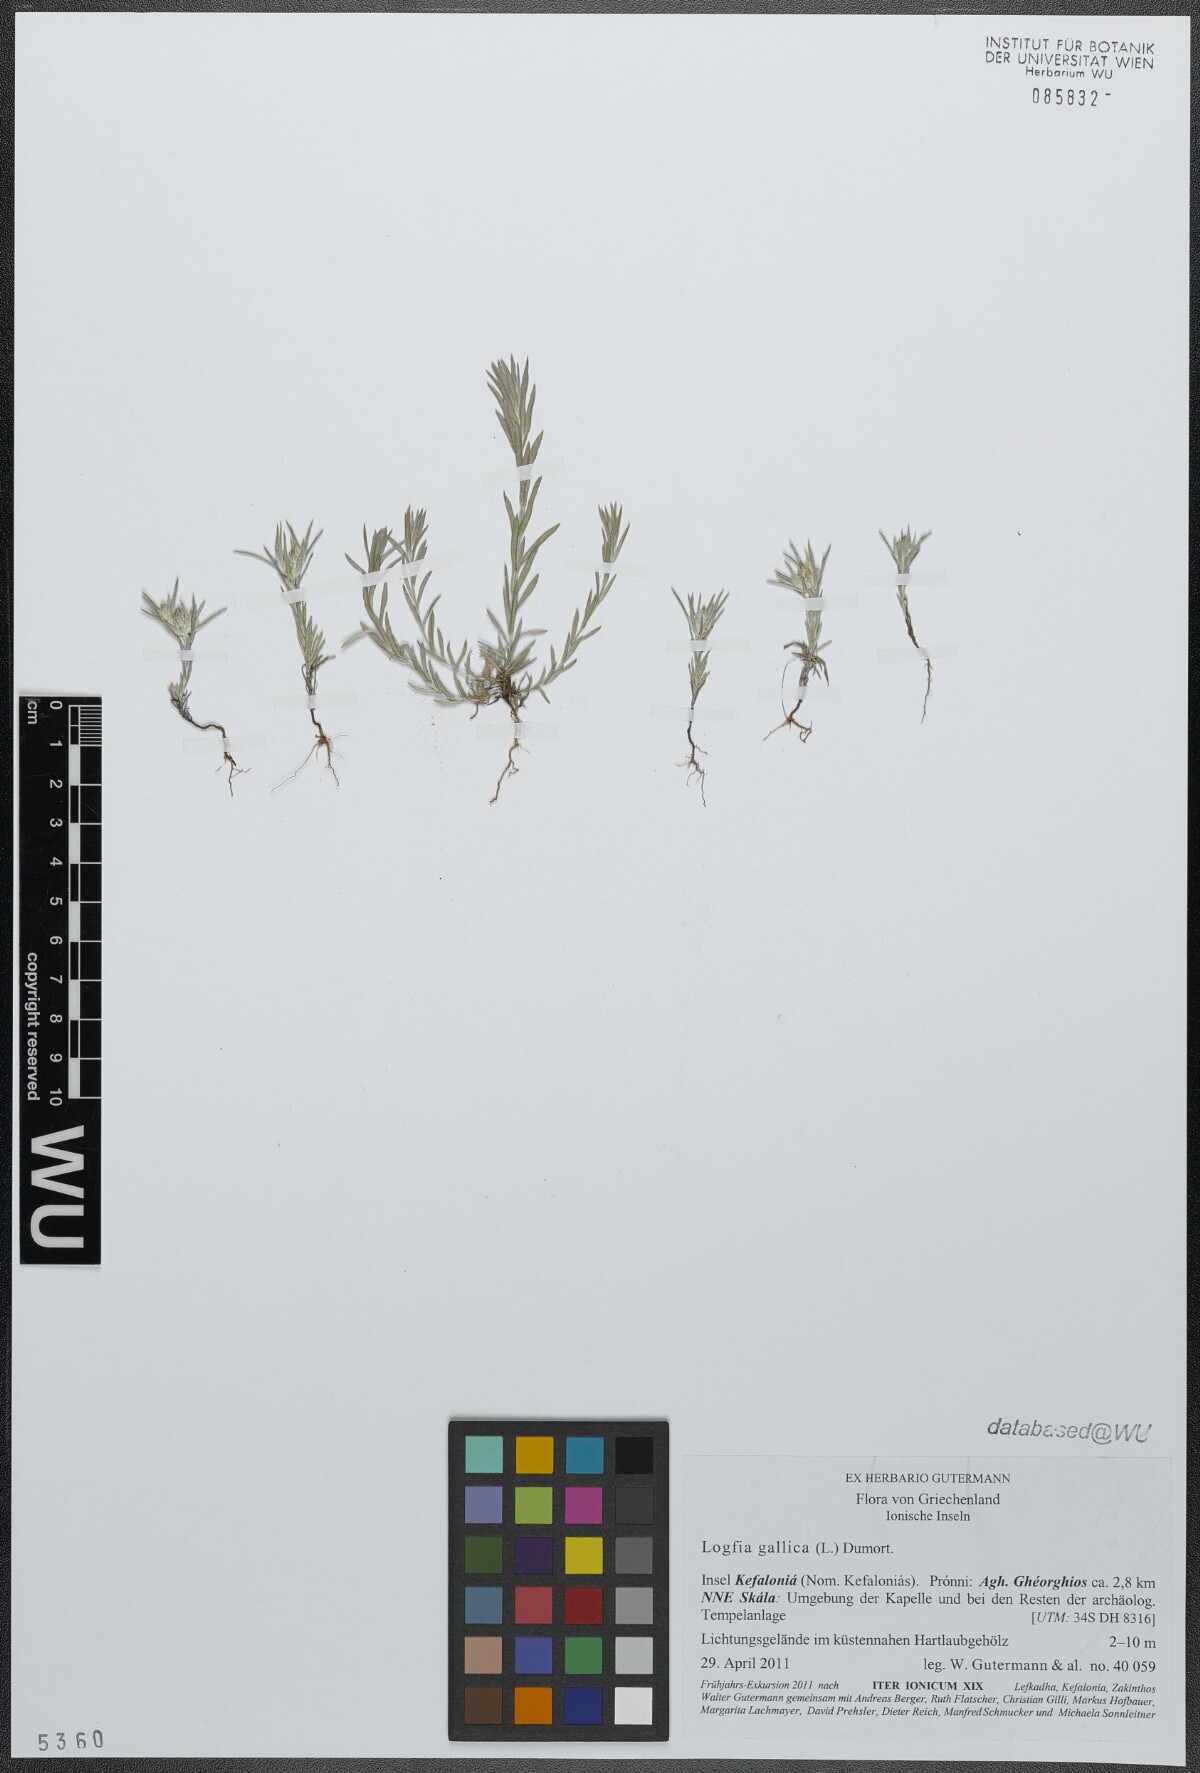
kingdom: Plantae
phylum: Tracheophyta
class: Magnoliopsida
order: Asterales
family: Asteraceae
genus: Logfia
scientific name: Logfia gallica
